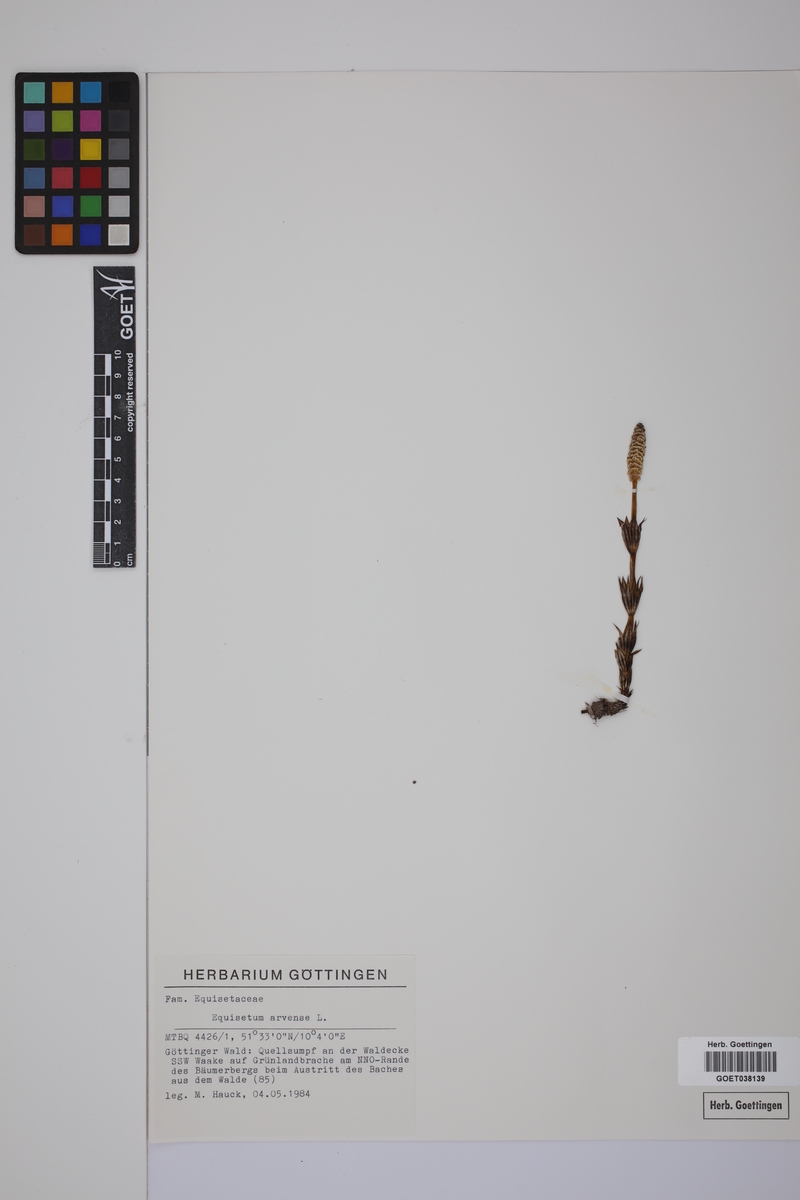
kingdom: Plantae
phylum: Tracheophyta
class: Polypodiopsida
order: Equisetales
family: Equisetaceae
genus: Equisetum
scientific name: Equisetum arvense
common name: Field horsetail
